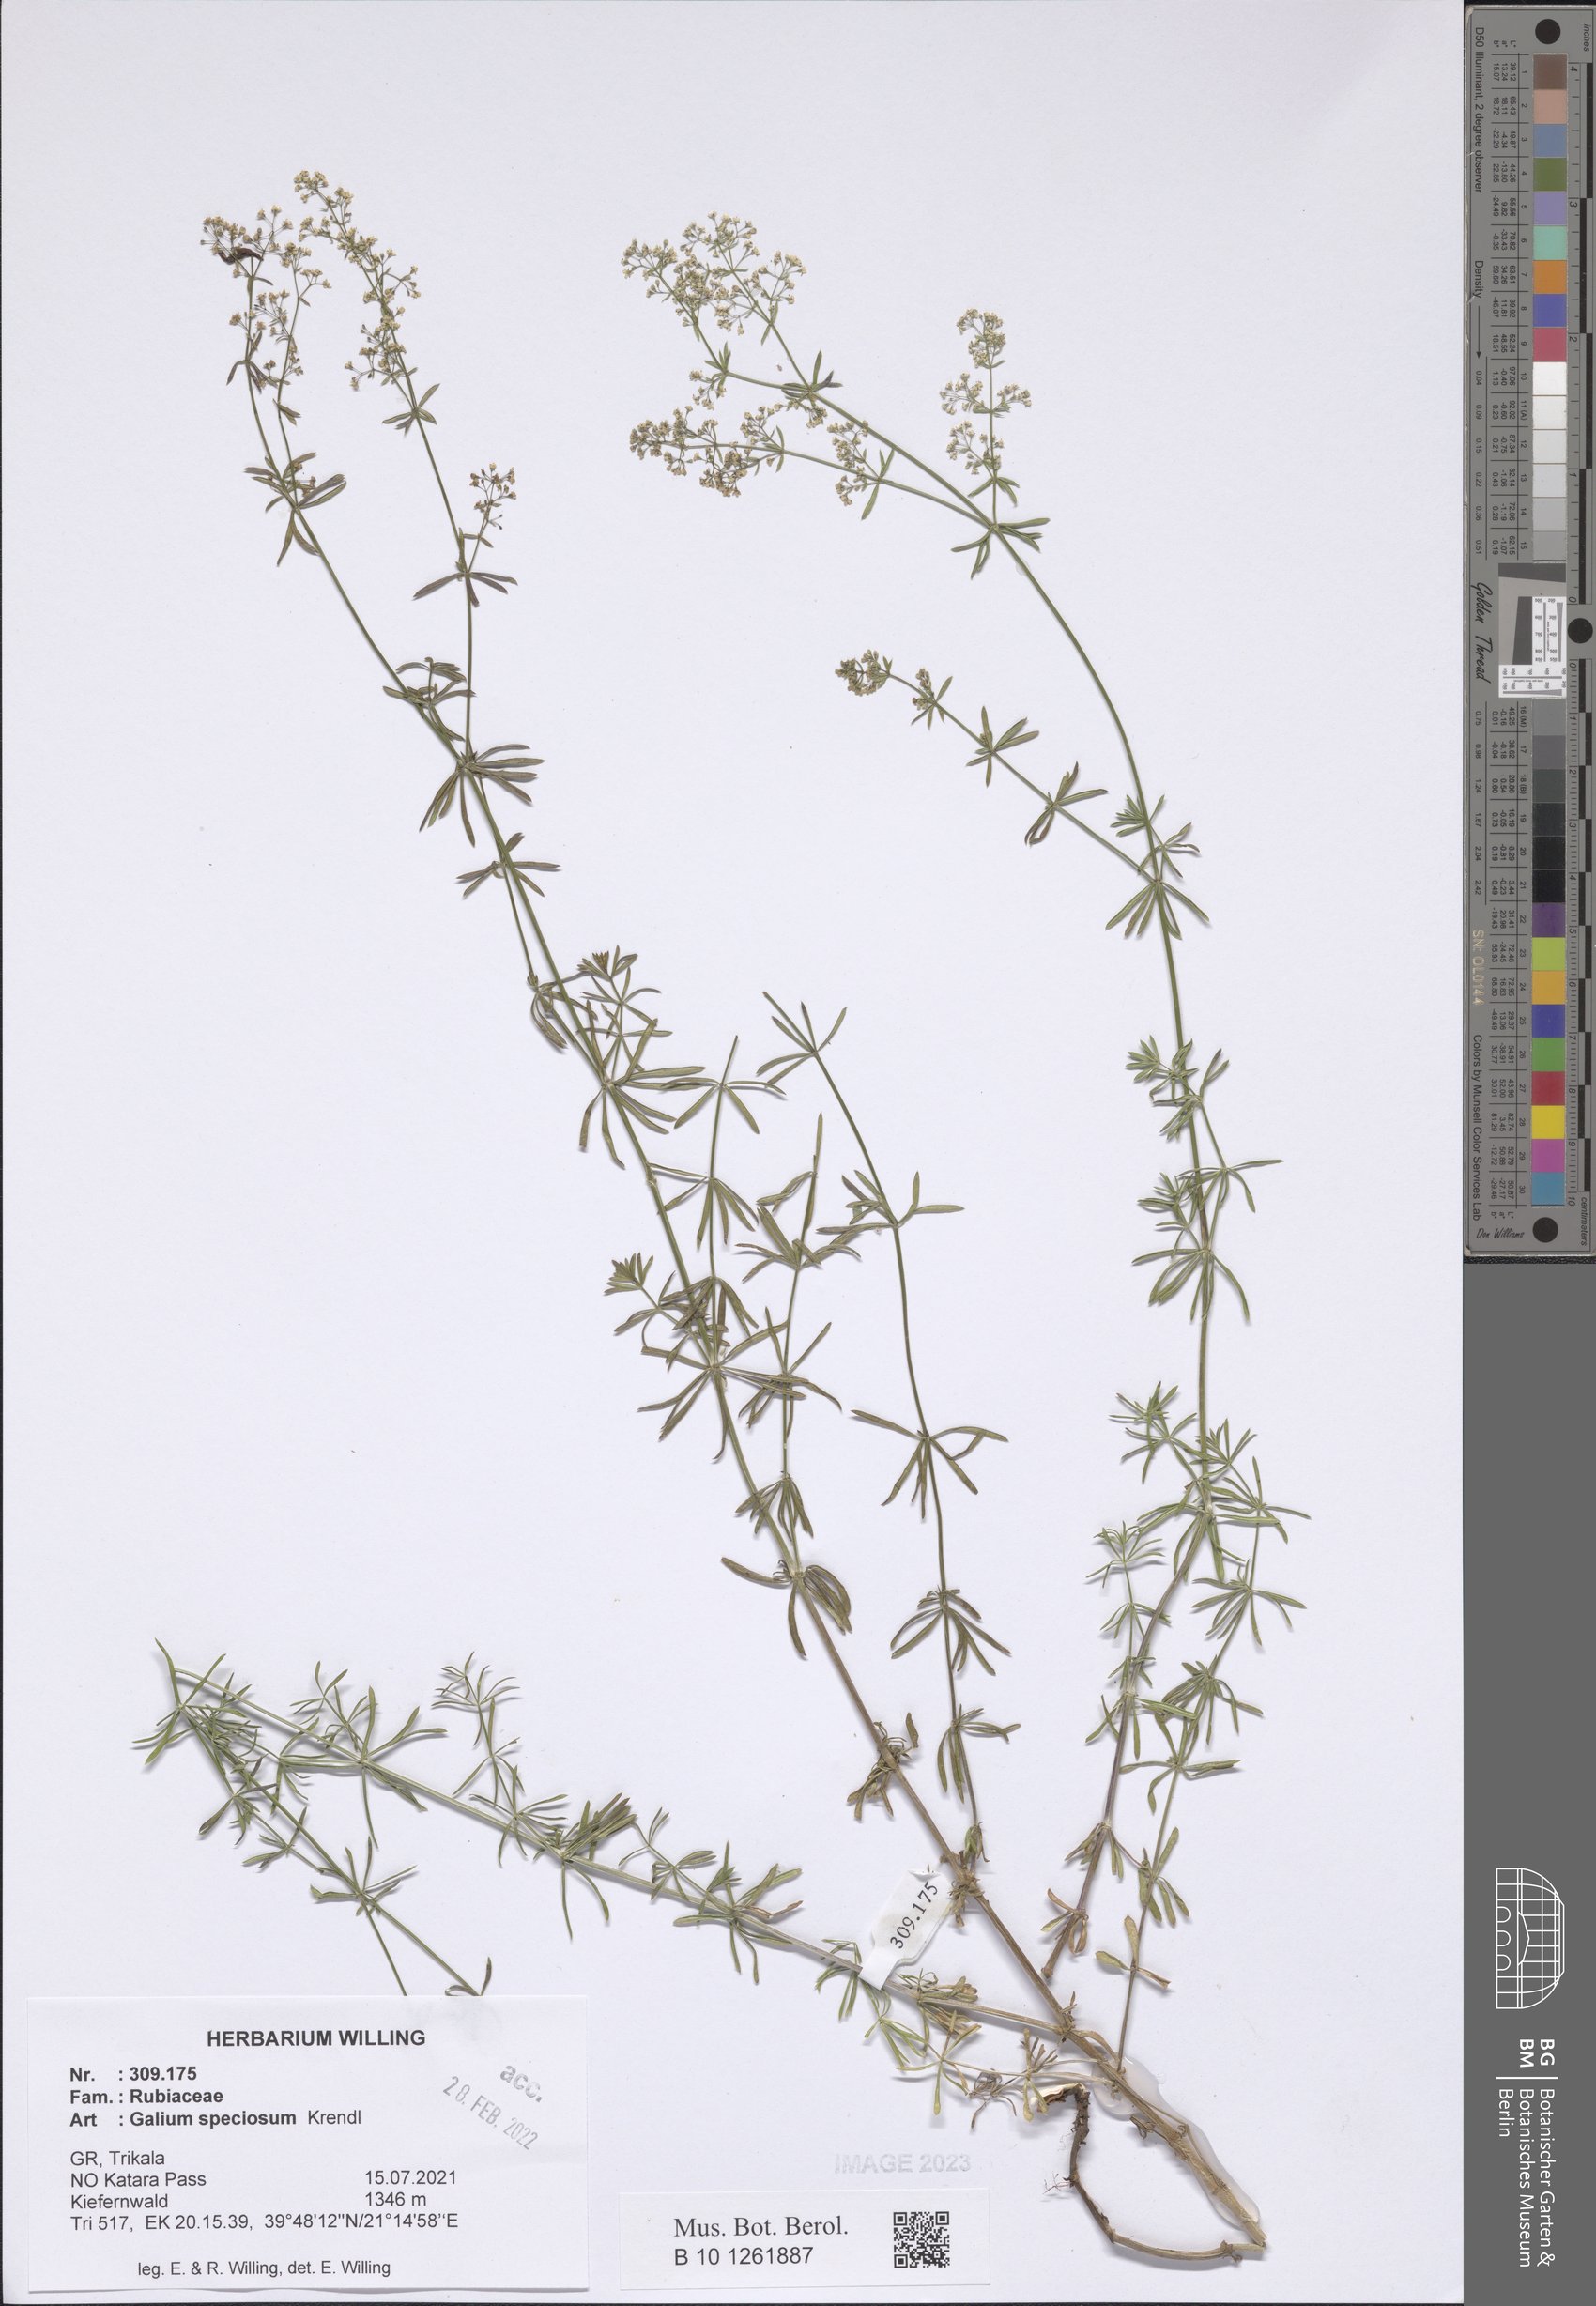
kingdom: Plantae
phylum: Tracheophyta
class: Magnoliopsida
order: Gentianales
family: Rubiaceae
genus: Galium
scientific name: Galium speciosum
